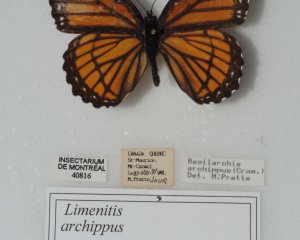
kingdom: Animalia
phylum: Arthropoda
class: Insecta
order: Lepidoptera
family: Nymphalidae
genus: Limenitis
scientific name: Limenitis archippus
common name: Viceroy
